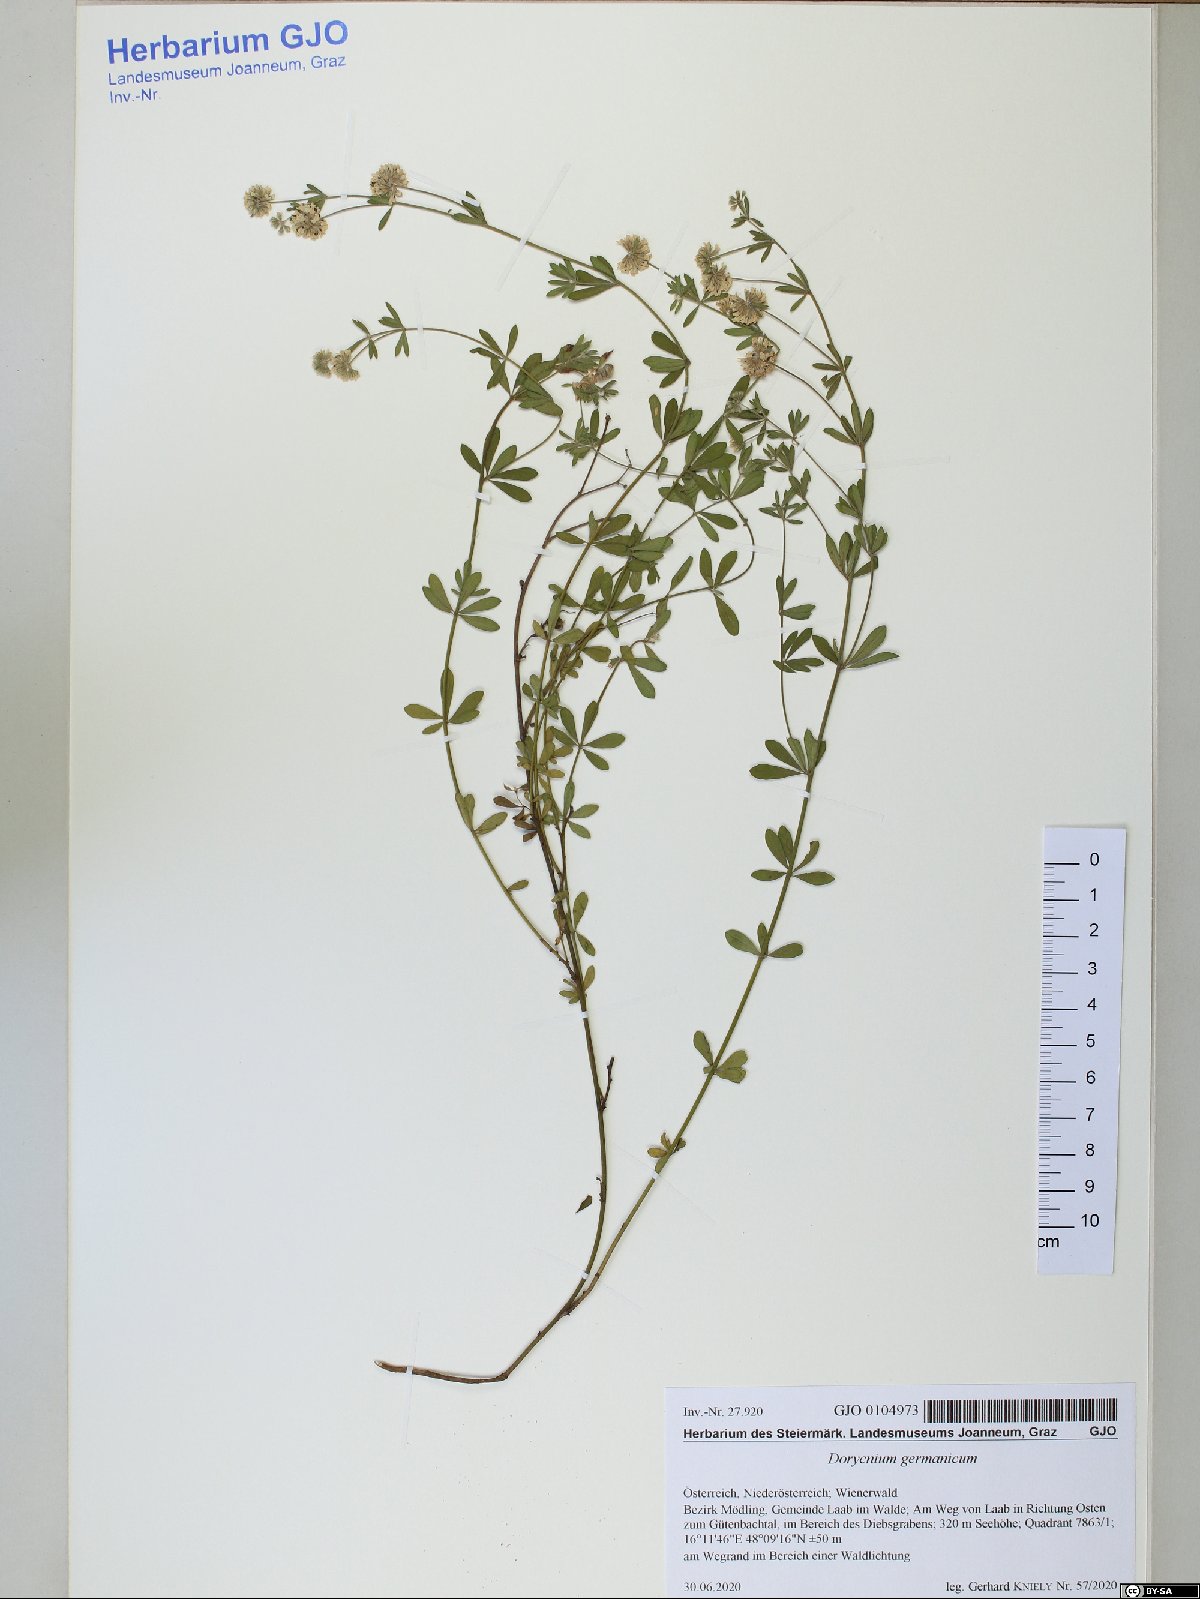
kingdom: Plantae
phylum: Tracheophyta
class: Magnoliopsida
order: Fabales
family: Fabaceae
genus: Lotus
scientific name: Lotus germanicus
